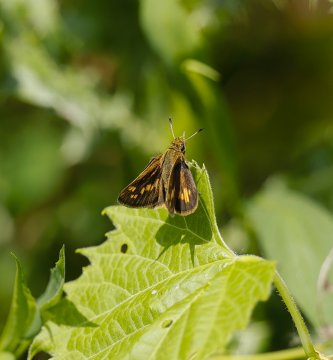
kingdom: Animalia
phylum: Arthropoda
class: Insecta
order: Lepidoptera
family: Hesperiidae
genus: Polites
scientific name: Polites coras
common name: Peck's Skipper
